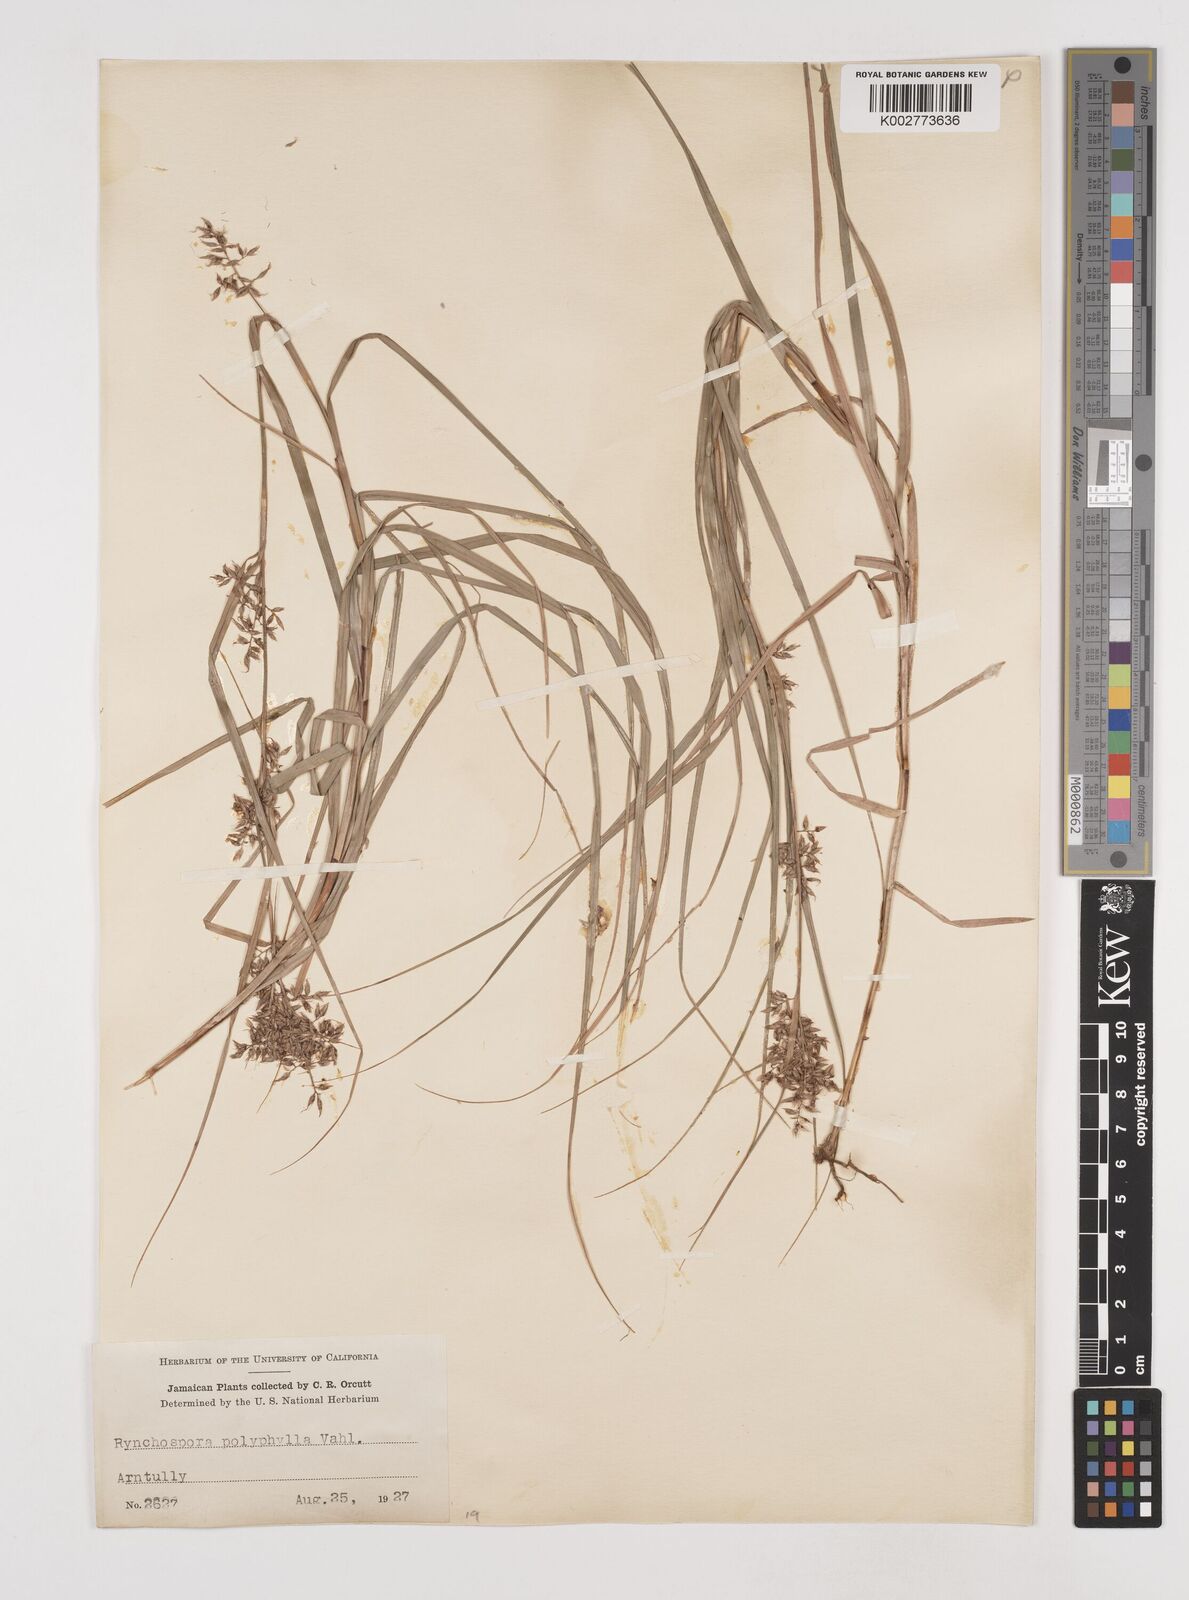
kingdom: Plantae
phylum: Tracheophyta
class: Liliopsida
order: Poales
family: Cyperaceae
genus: Rhynchospora
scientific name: Rhynchospora polyphylla
